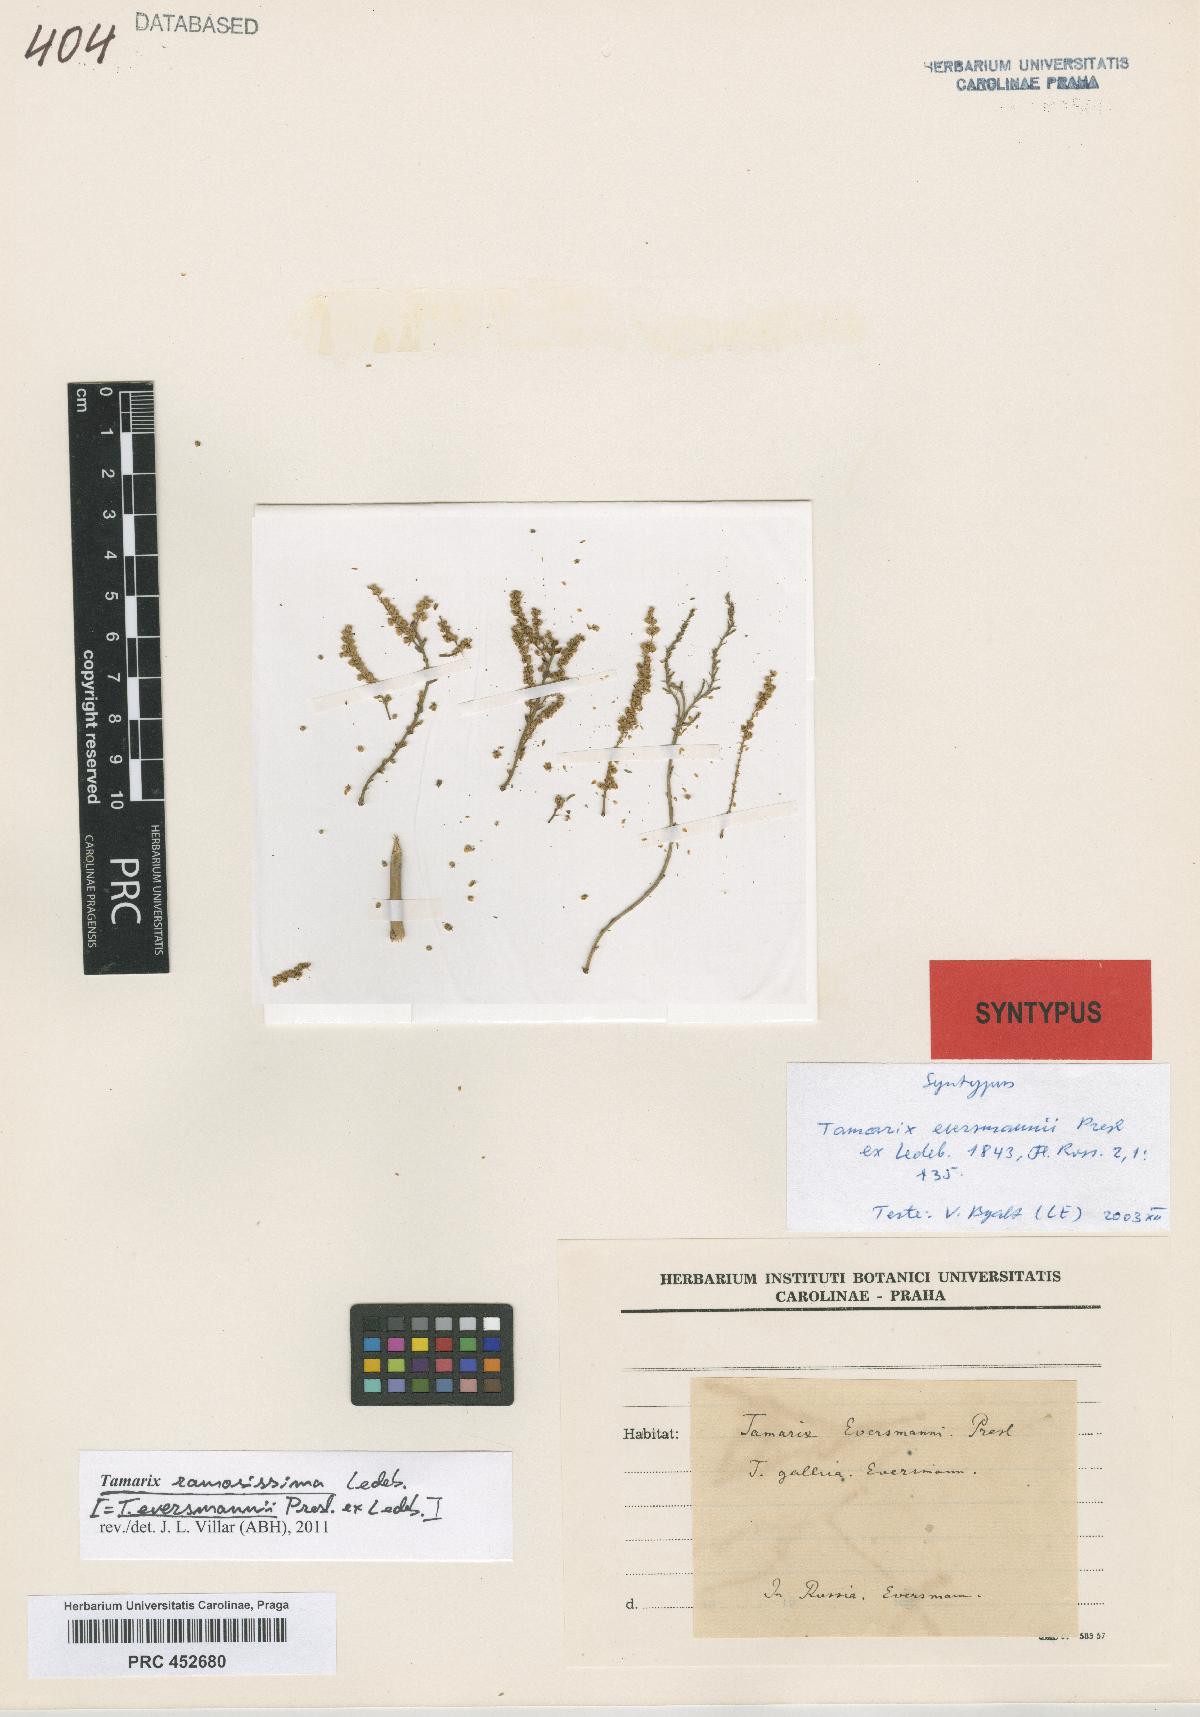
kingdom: Plantae
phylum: Tracheophyta
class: Magnoliopsida
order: Caryophyllales
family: Tamaricaceae
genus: Tamarix
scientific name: Tamarix eversmannii
